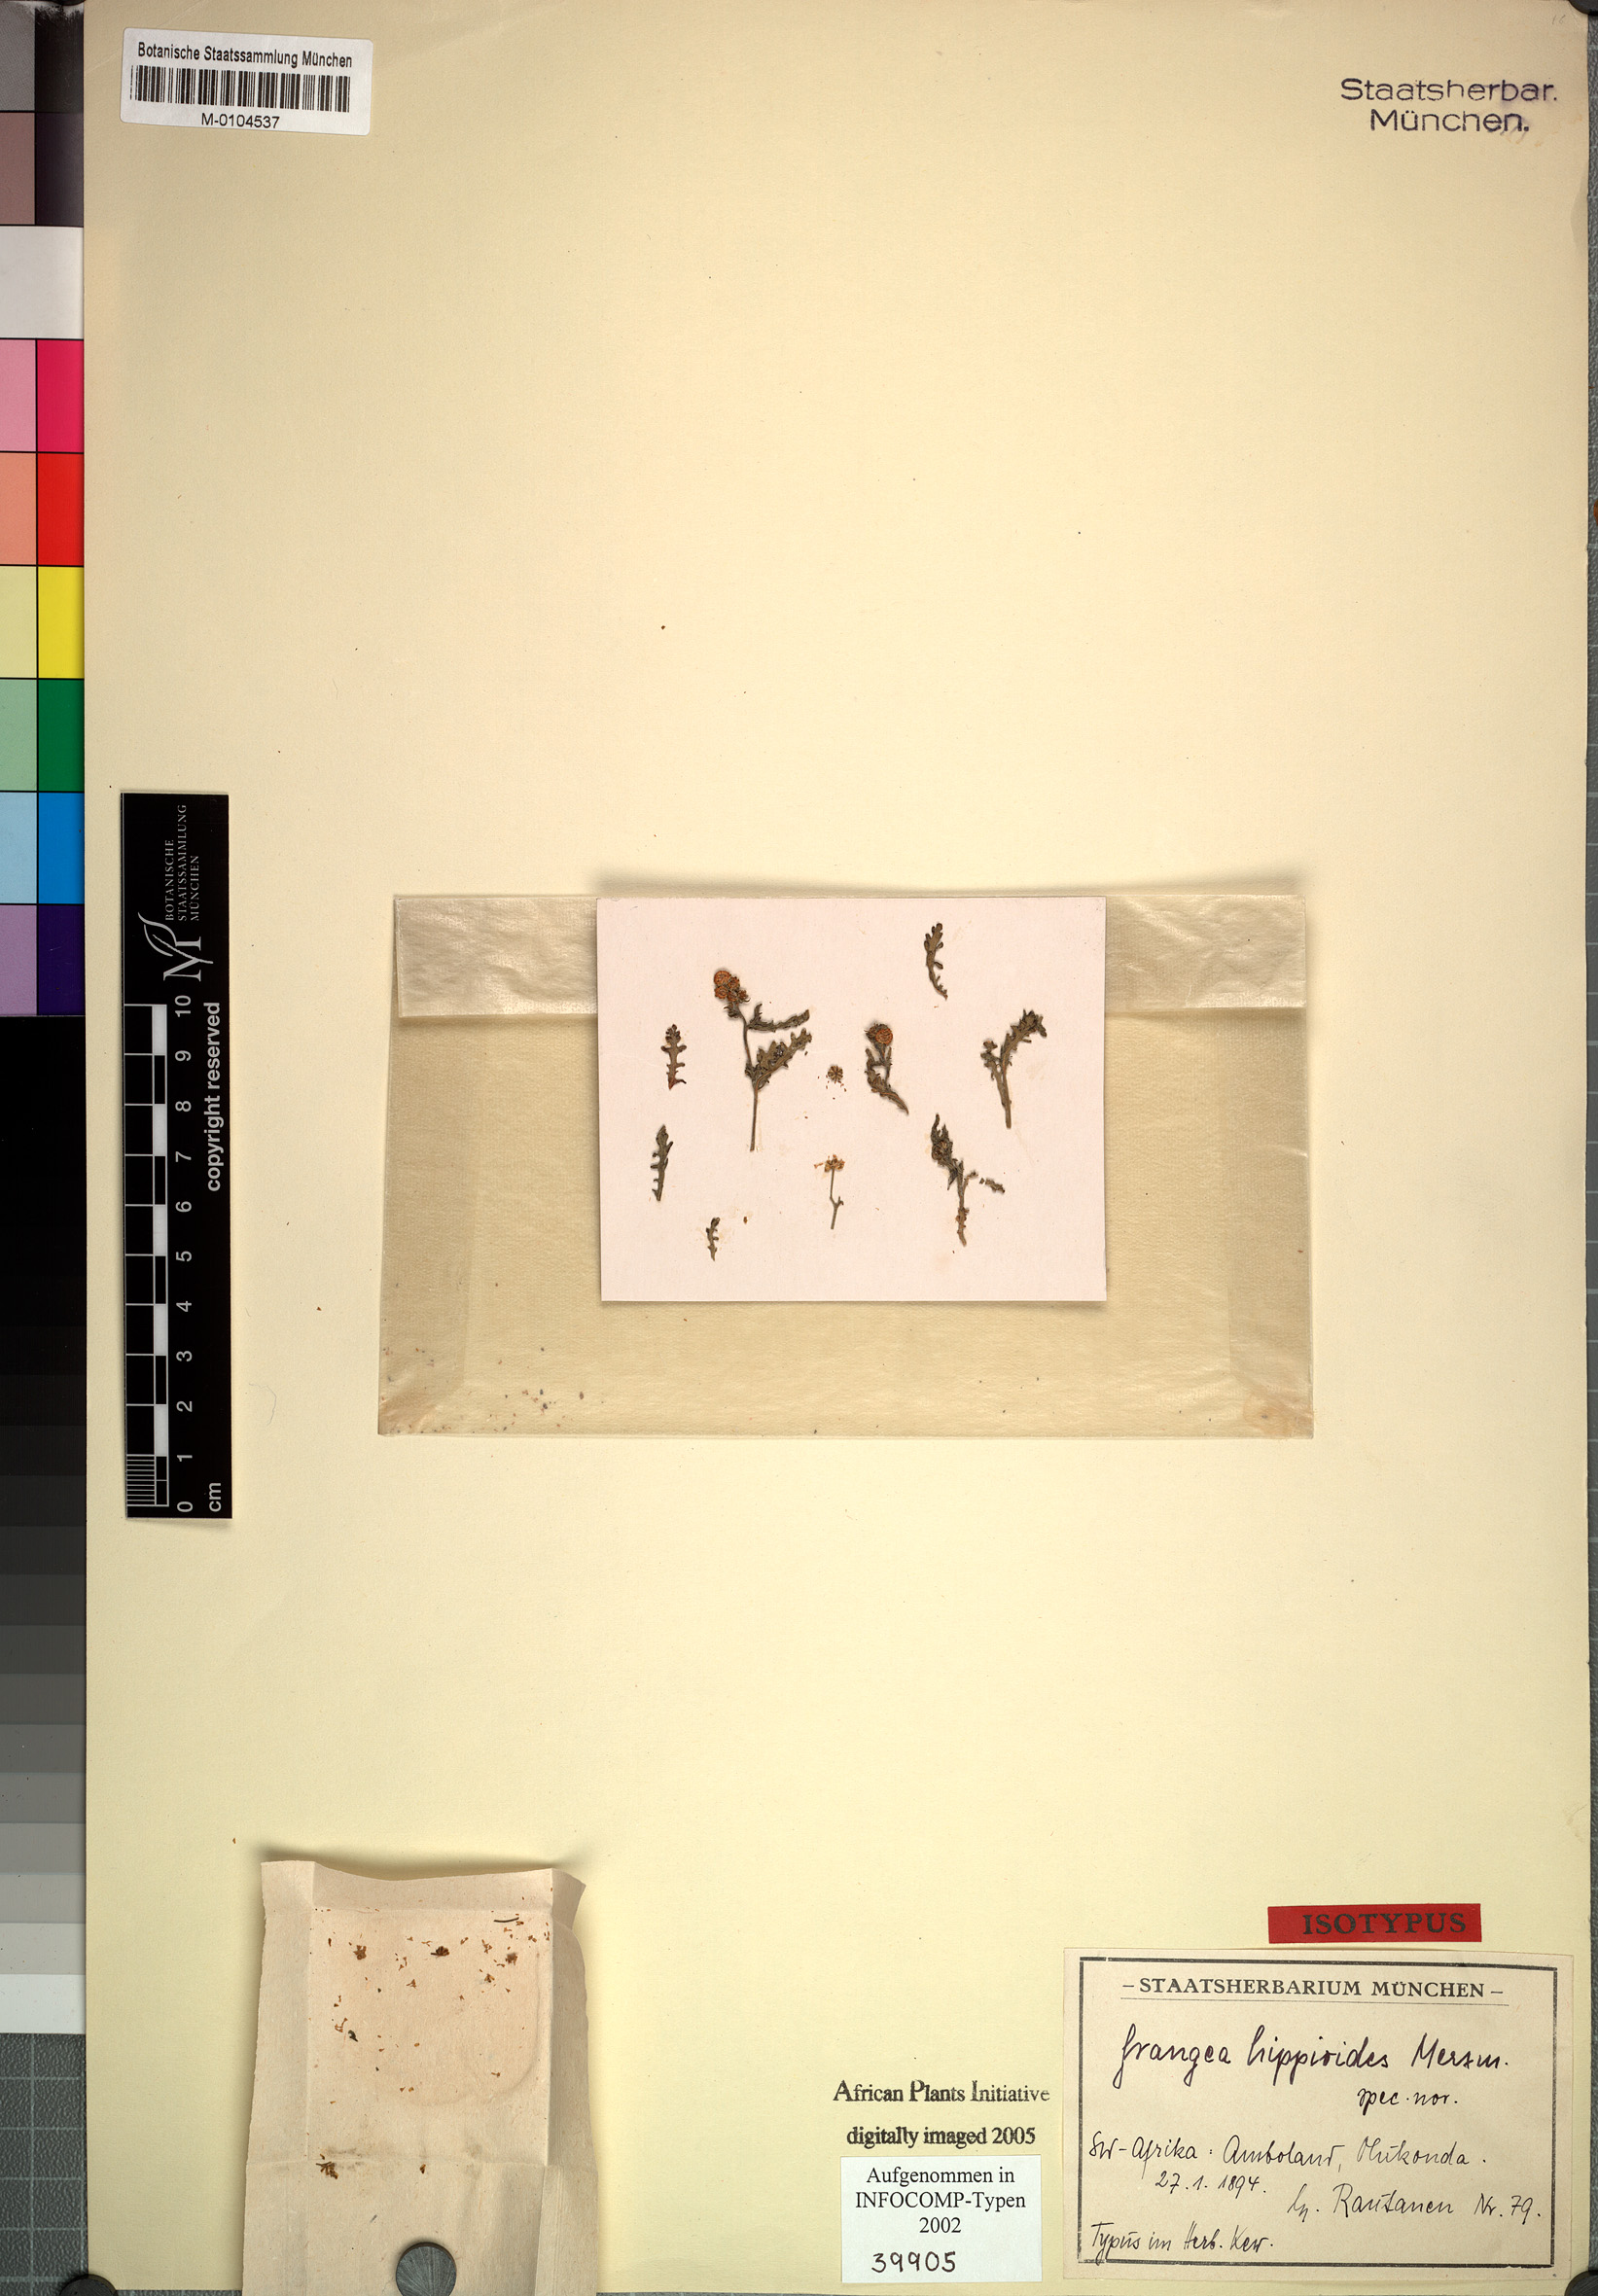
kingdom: Plantae
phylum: Tracheophyta
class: Magnoliopsida
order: Asterales
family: Asteraceae
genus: Grangea
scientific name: Grangea anthemoides
